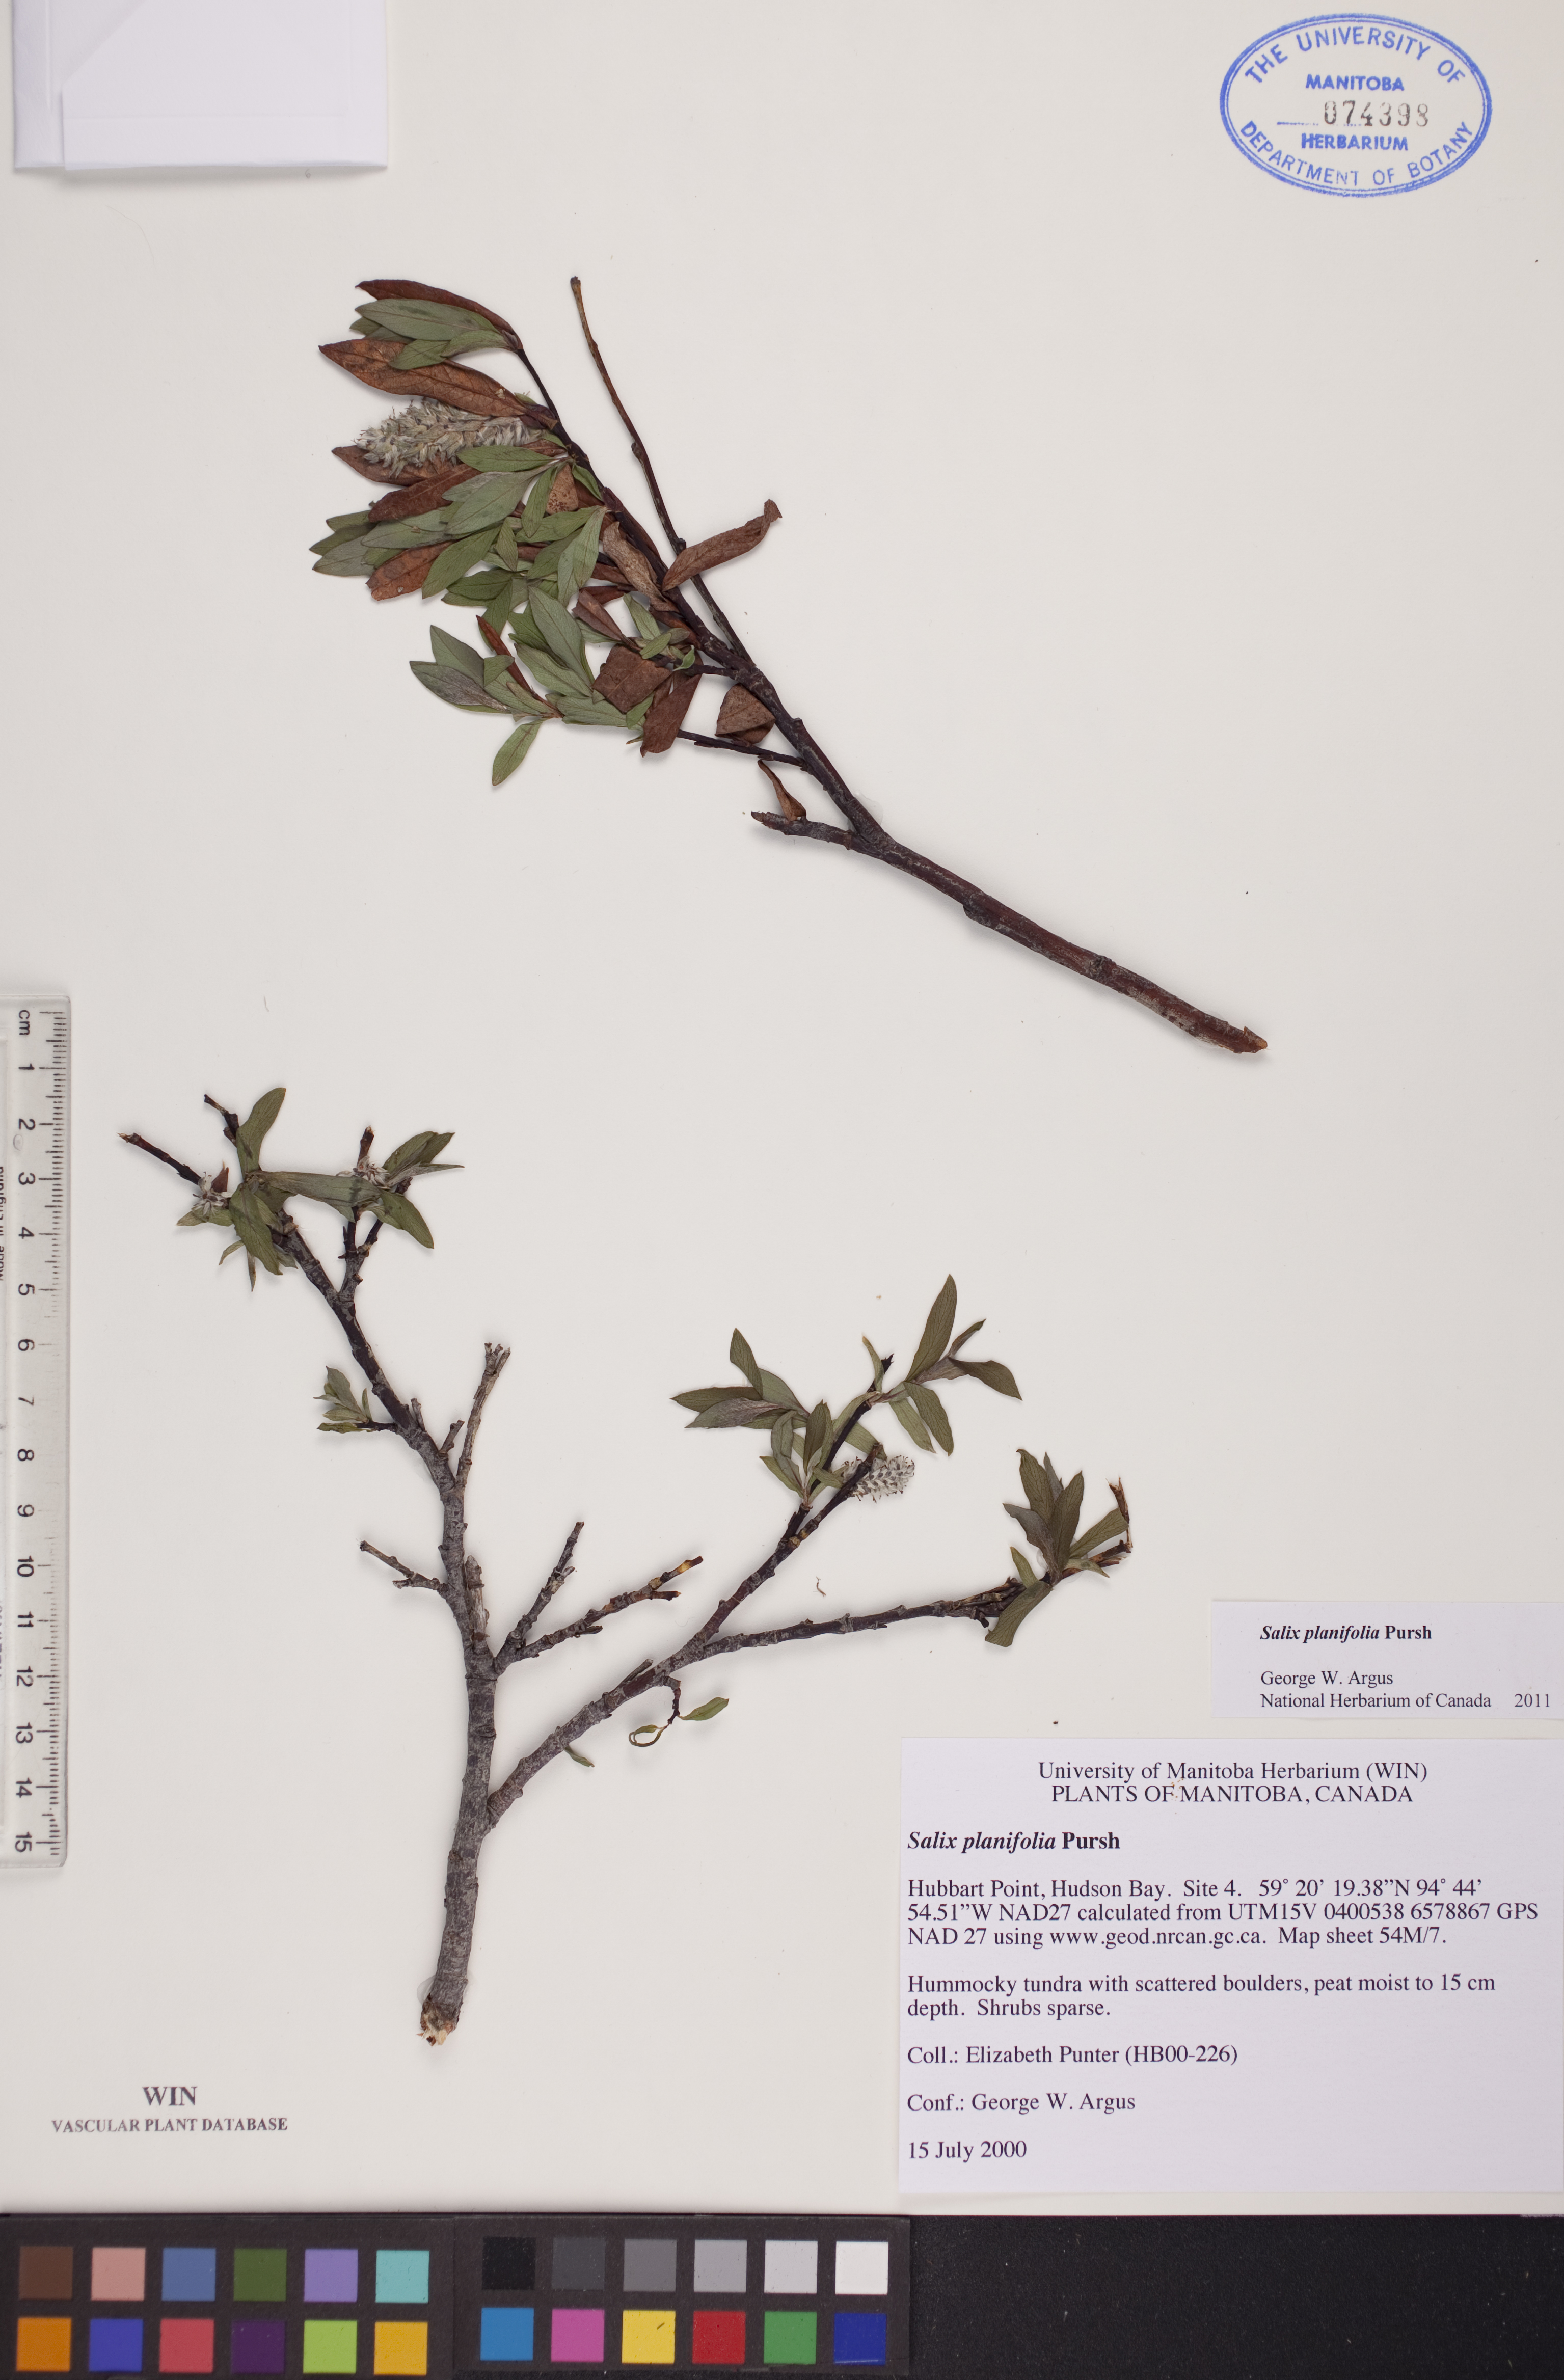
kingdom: Plantae
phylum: Tracheophyta
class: Magnoliopsida
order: Malpighiales
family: Salicaceae
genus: Salix
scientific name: Salix planifolia
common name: Mountain willow
